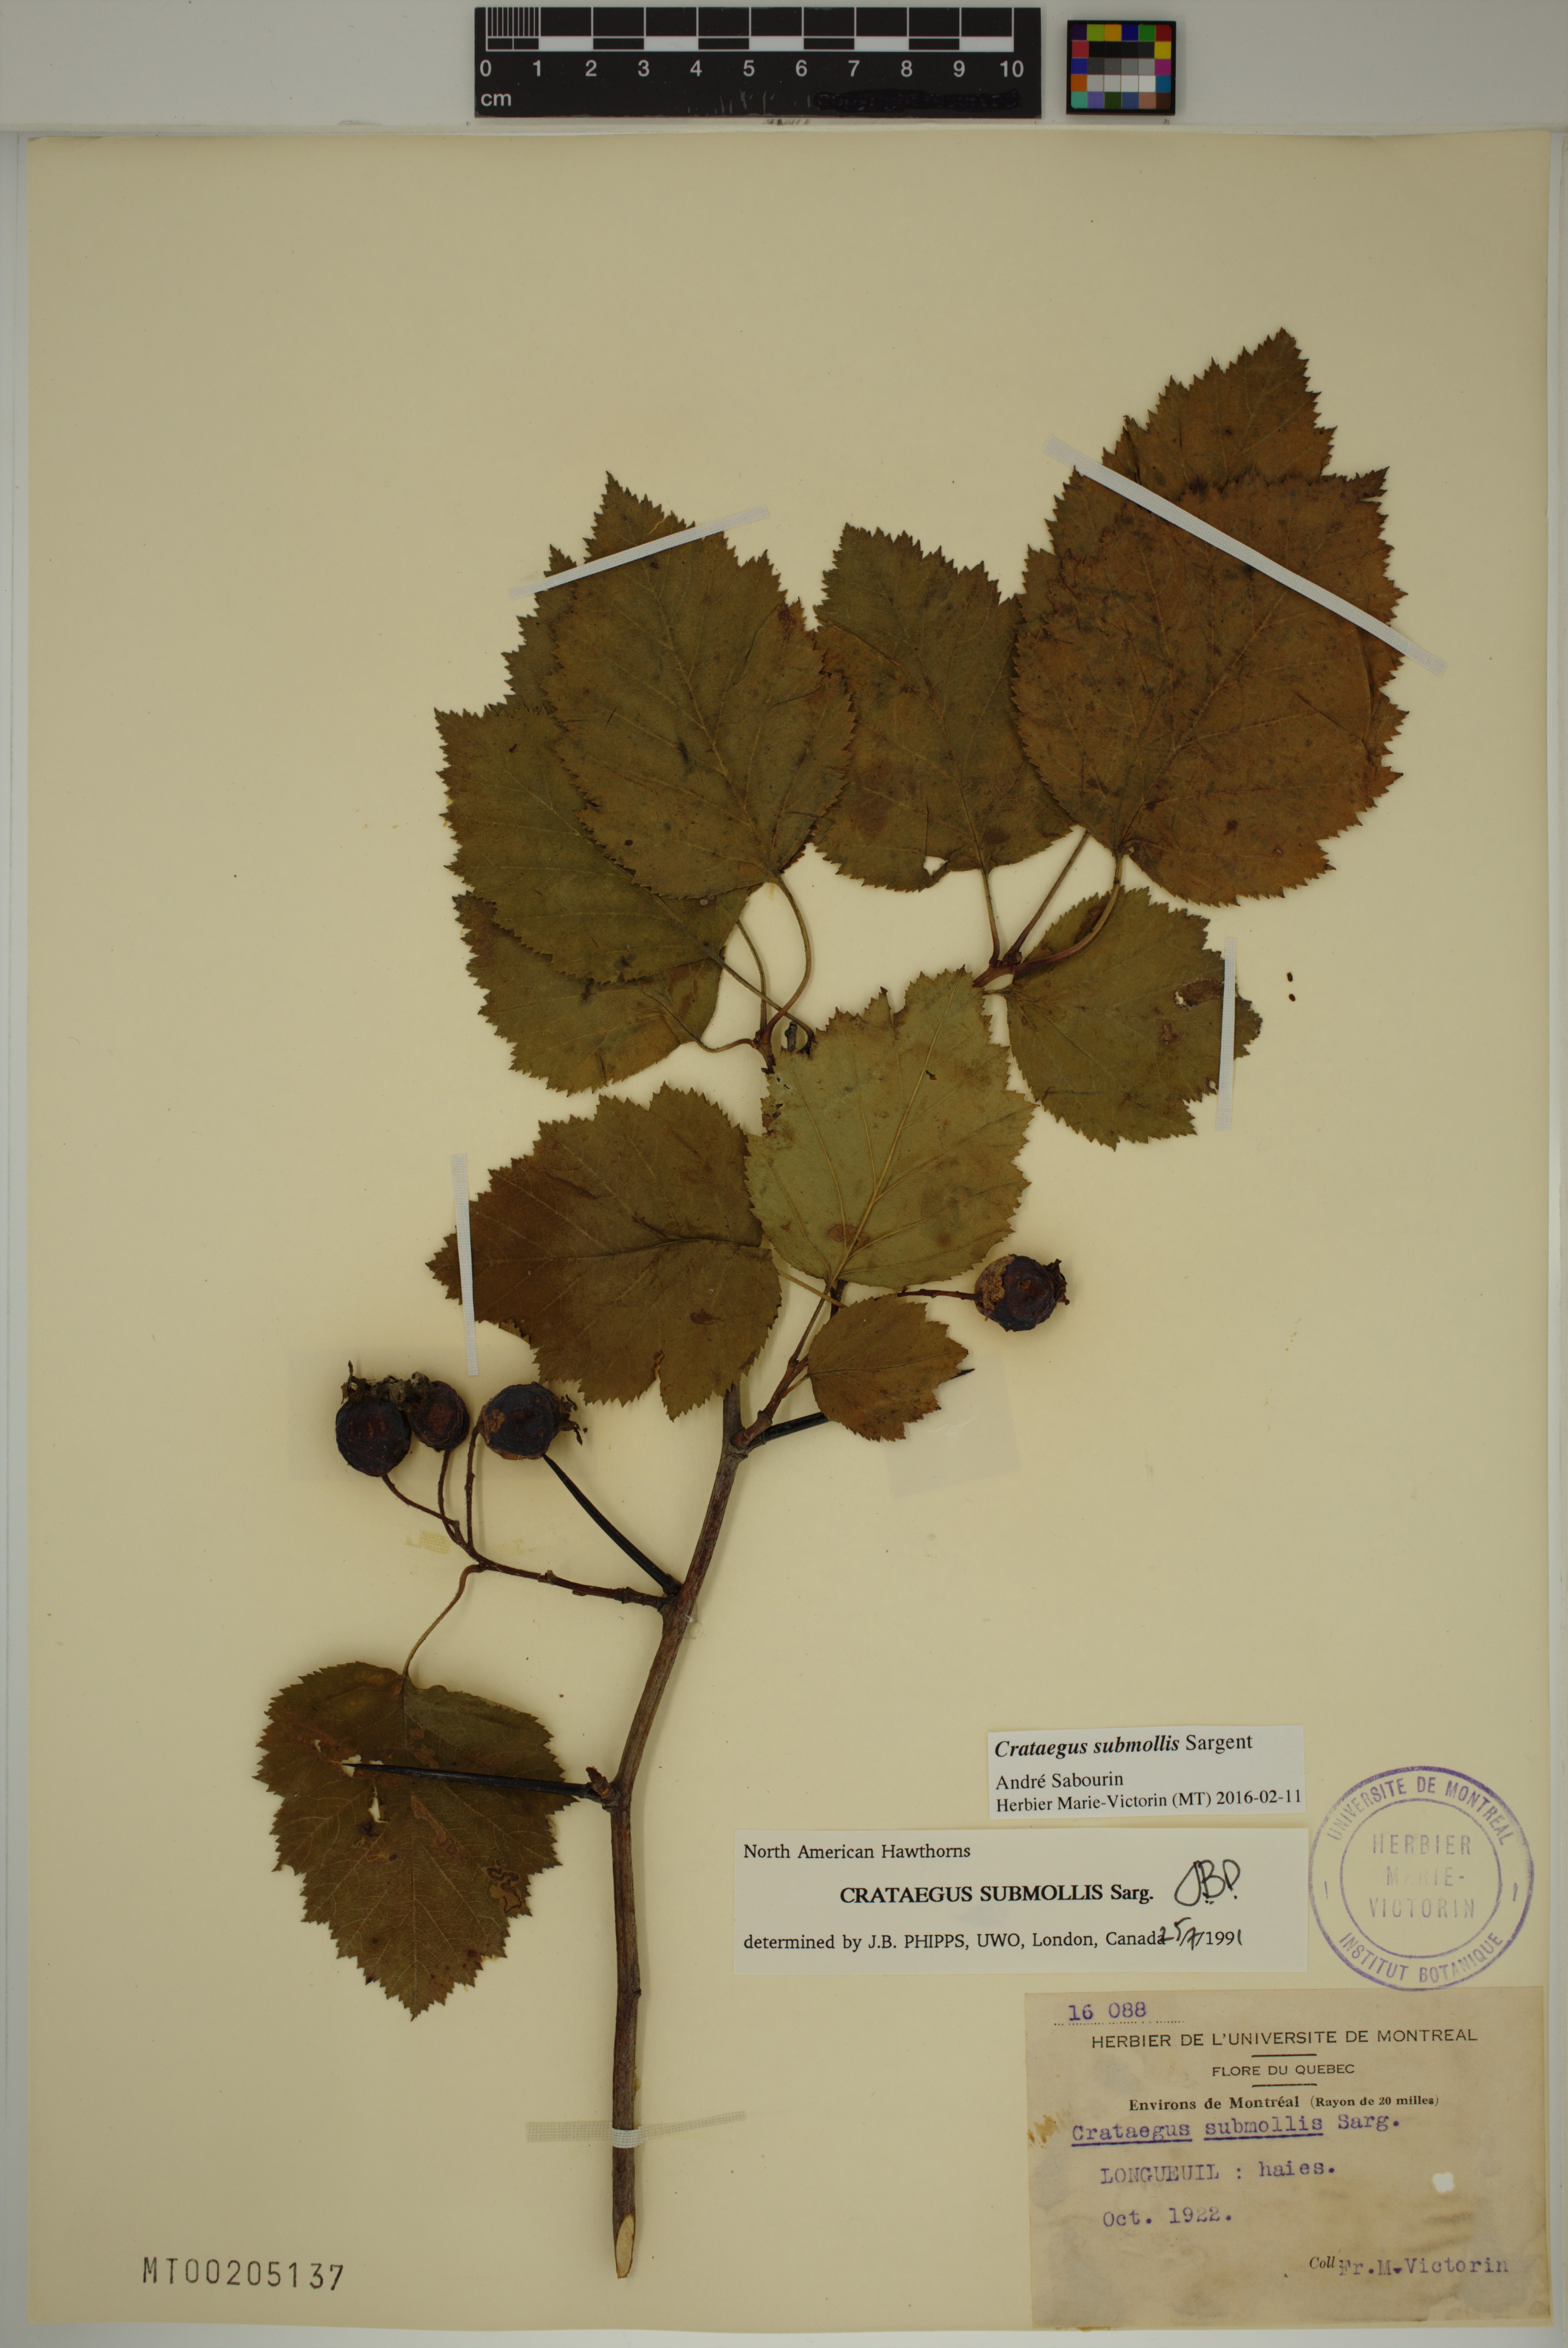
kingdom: Plantae
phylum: Tracheophyta
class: Magnoliopsida
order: Rosales
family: Rosaceae
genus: Crataegus
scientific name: Crataegus submollis
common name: Hairy cockspurthorn
